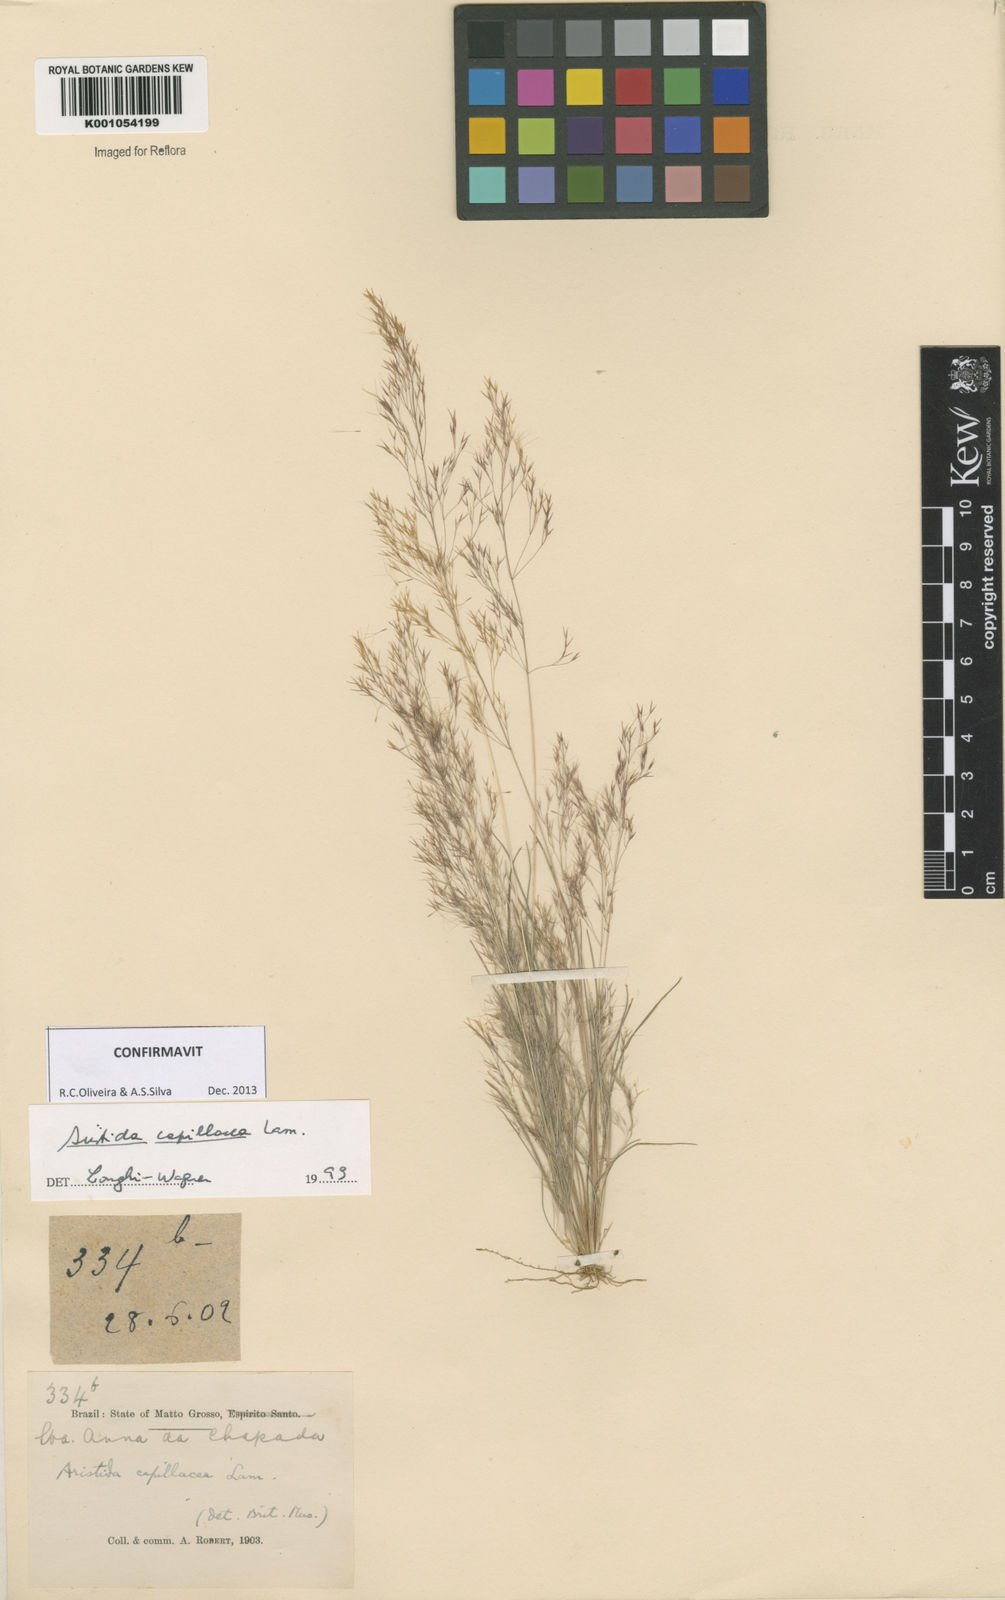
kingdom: Plantae
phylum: Tracheophyta
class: Liliopsida
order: Poales
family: Poaceae
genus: Aristida
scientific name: Aristida capillacea
